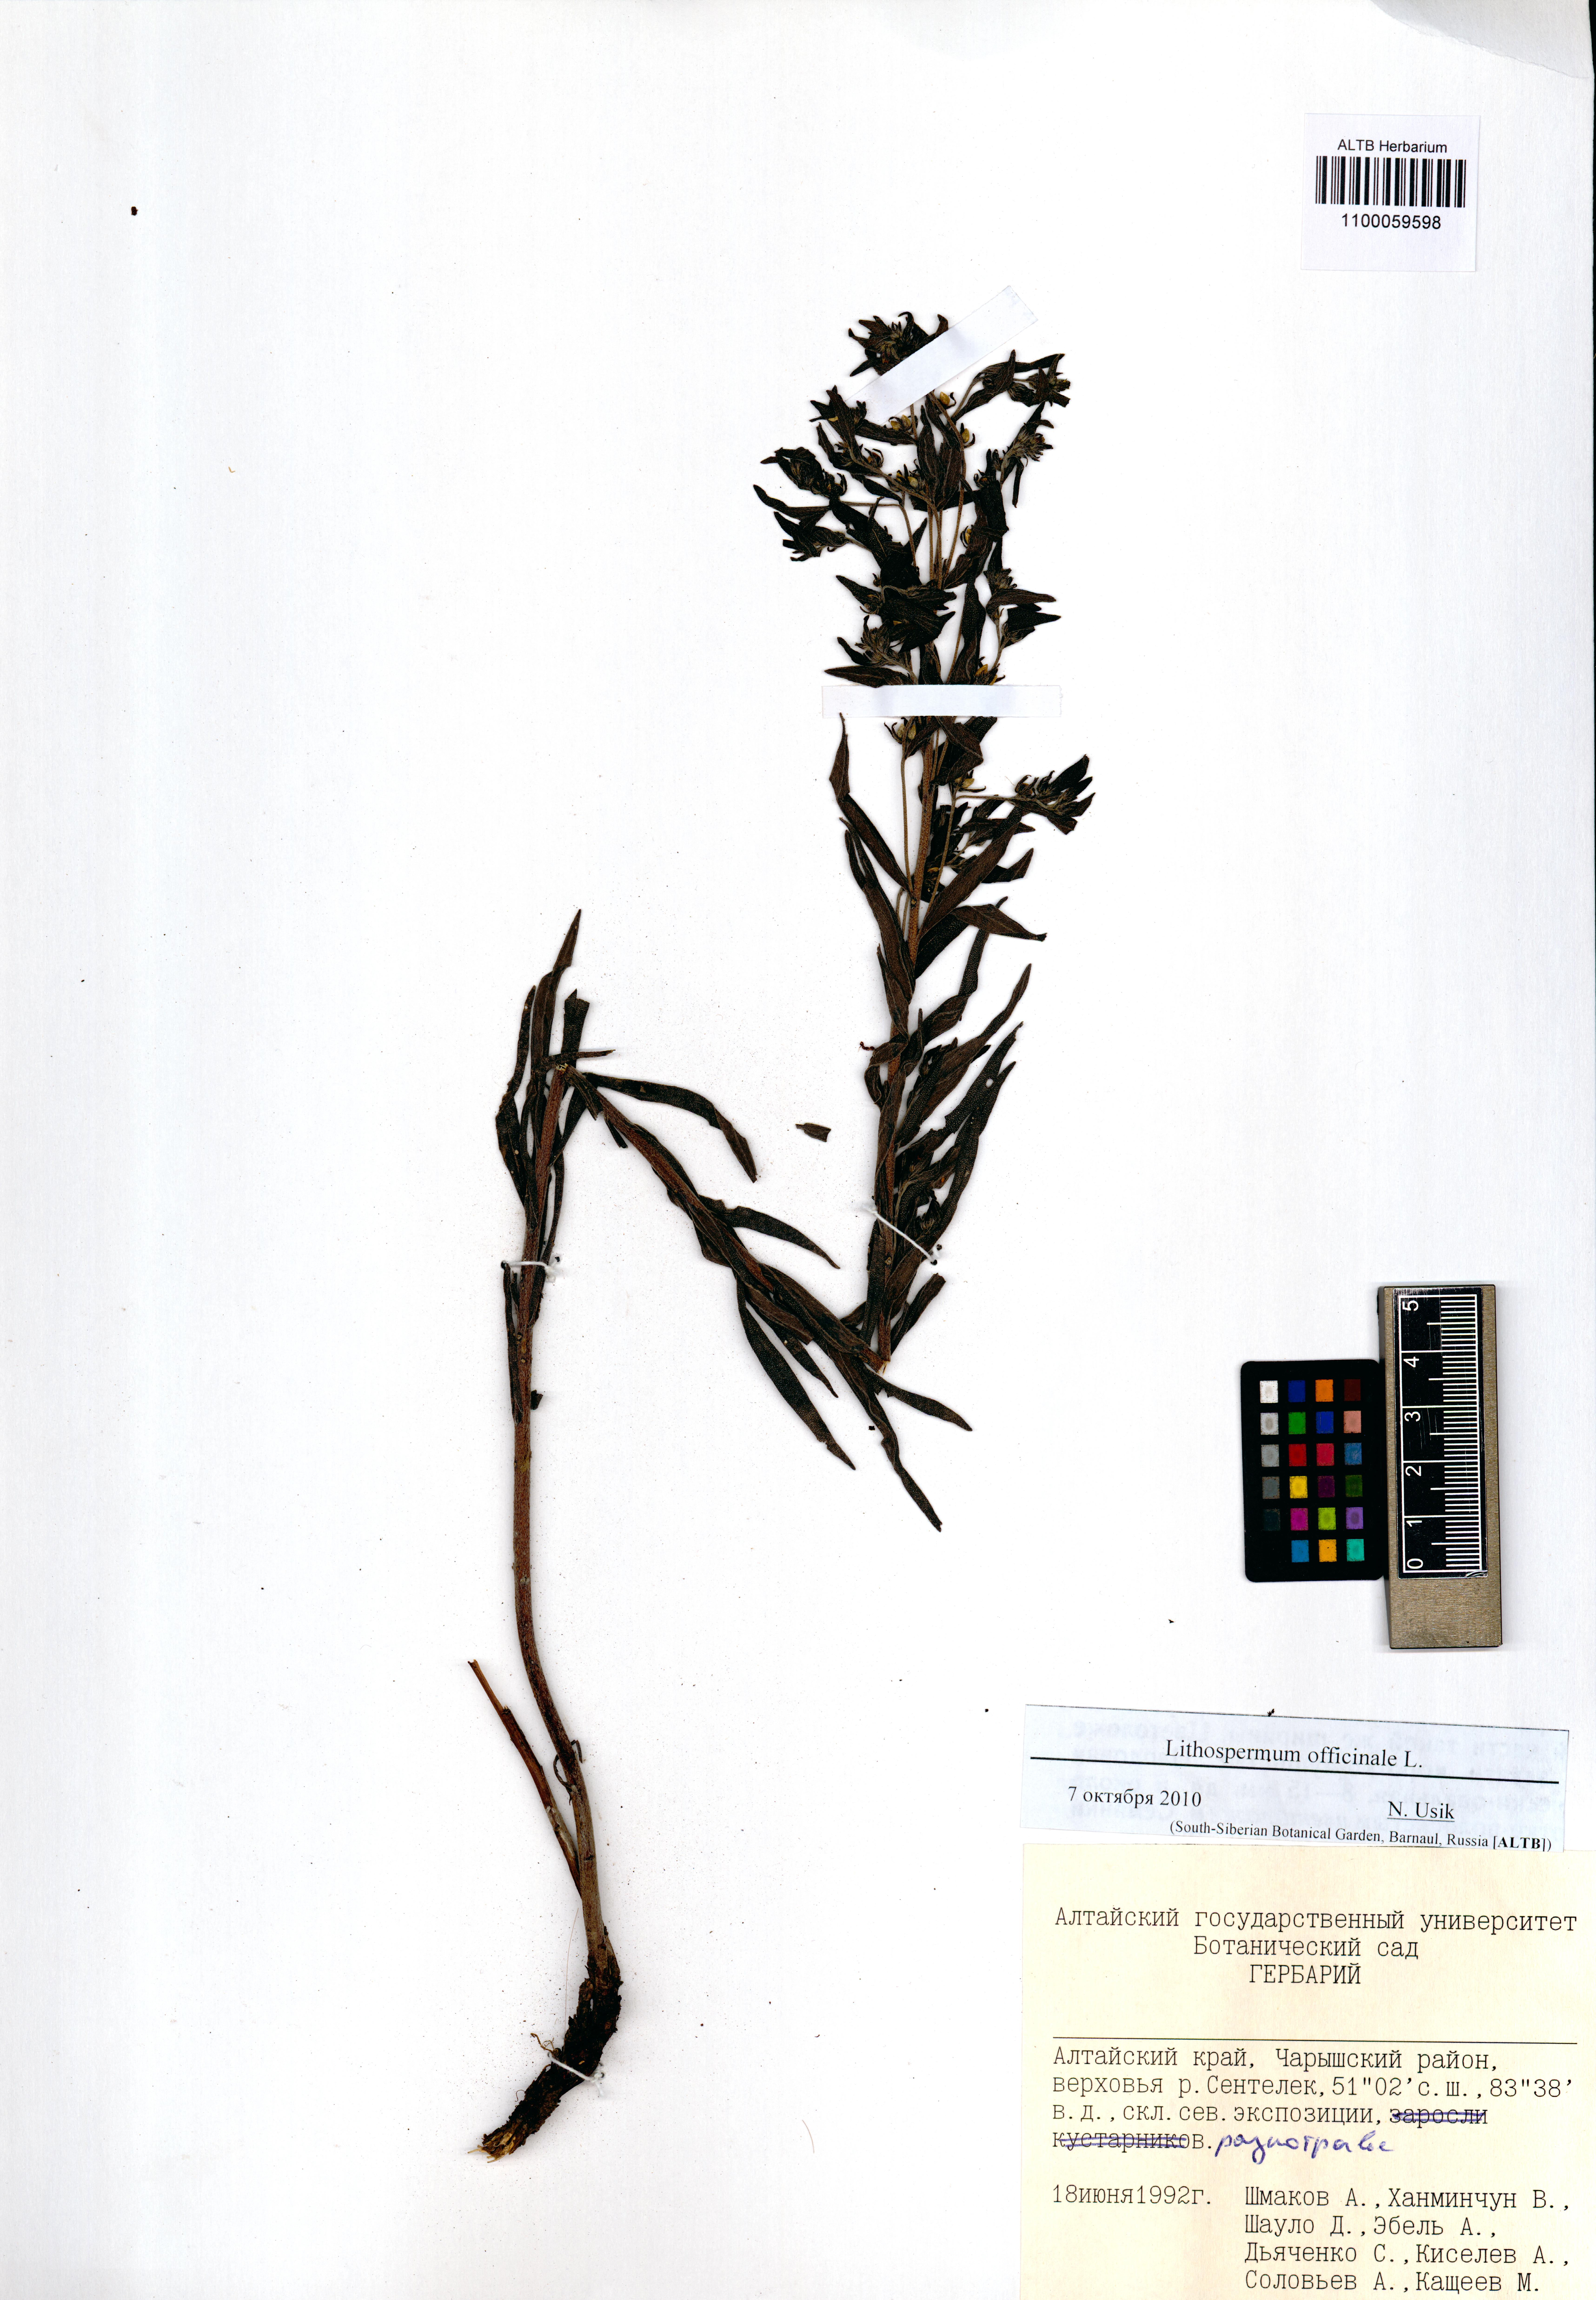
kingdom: Plantae
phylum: Tracheophyta
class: Magnoliopsida
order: Caryophyllales
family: Caryophyllaceae
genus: Silene
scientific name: Silene vulgaris
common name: Bladder campion
